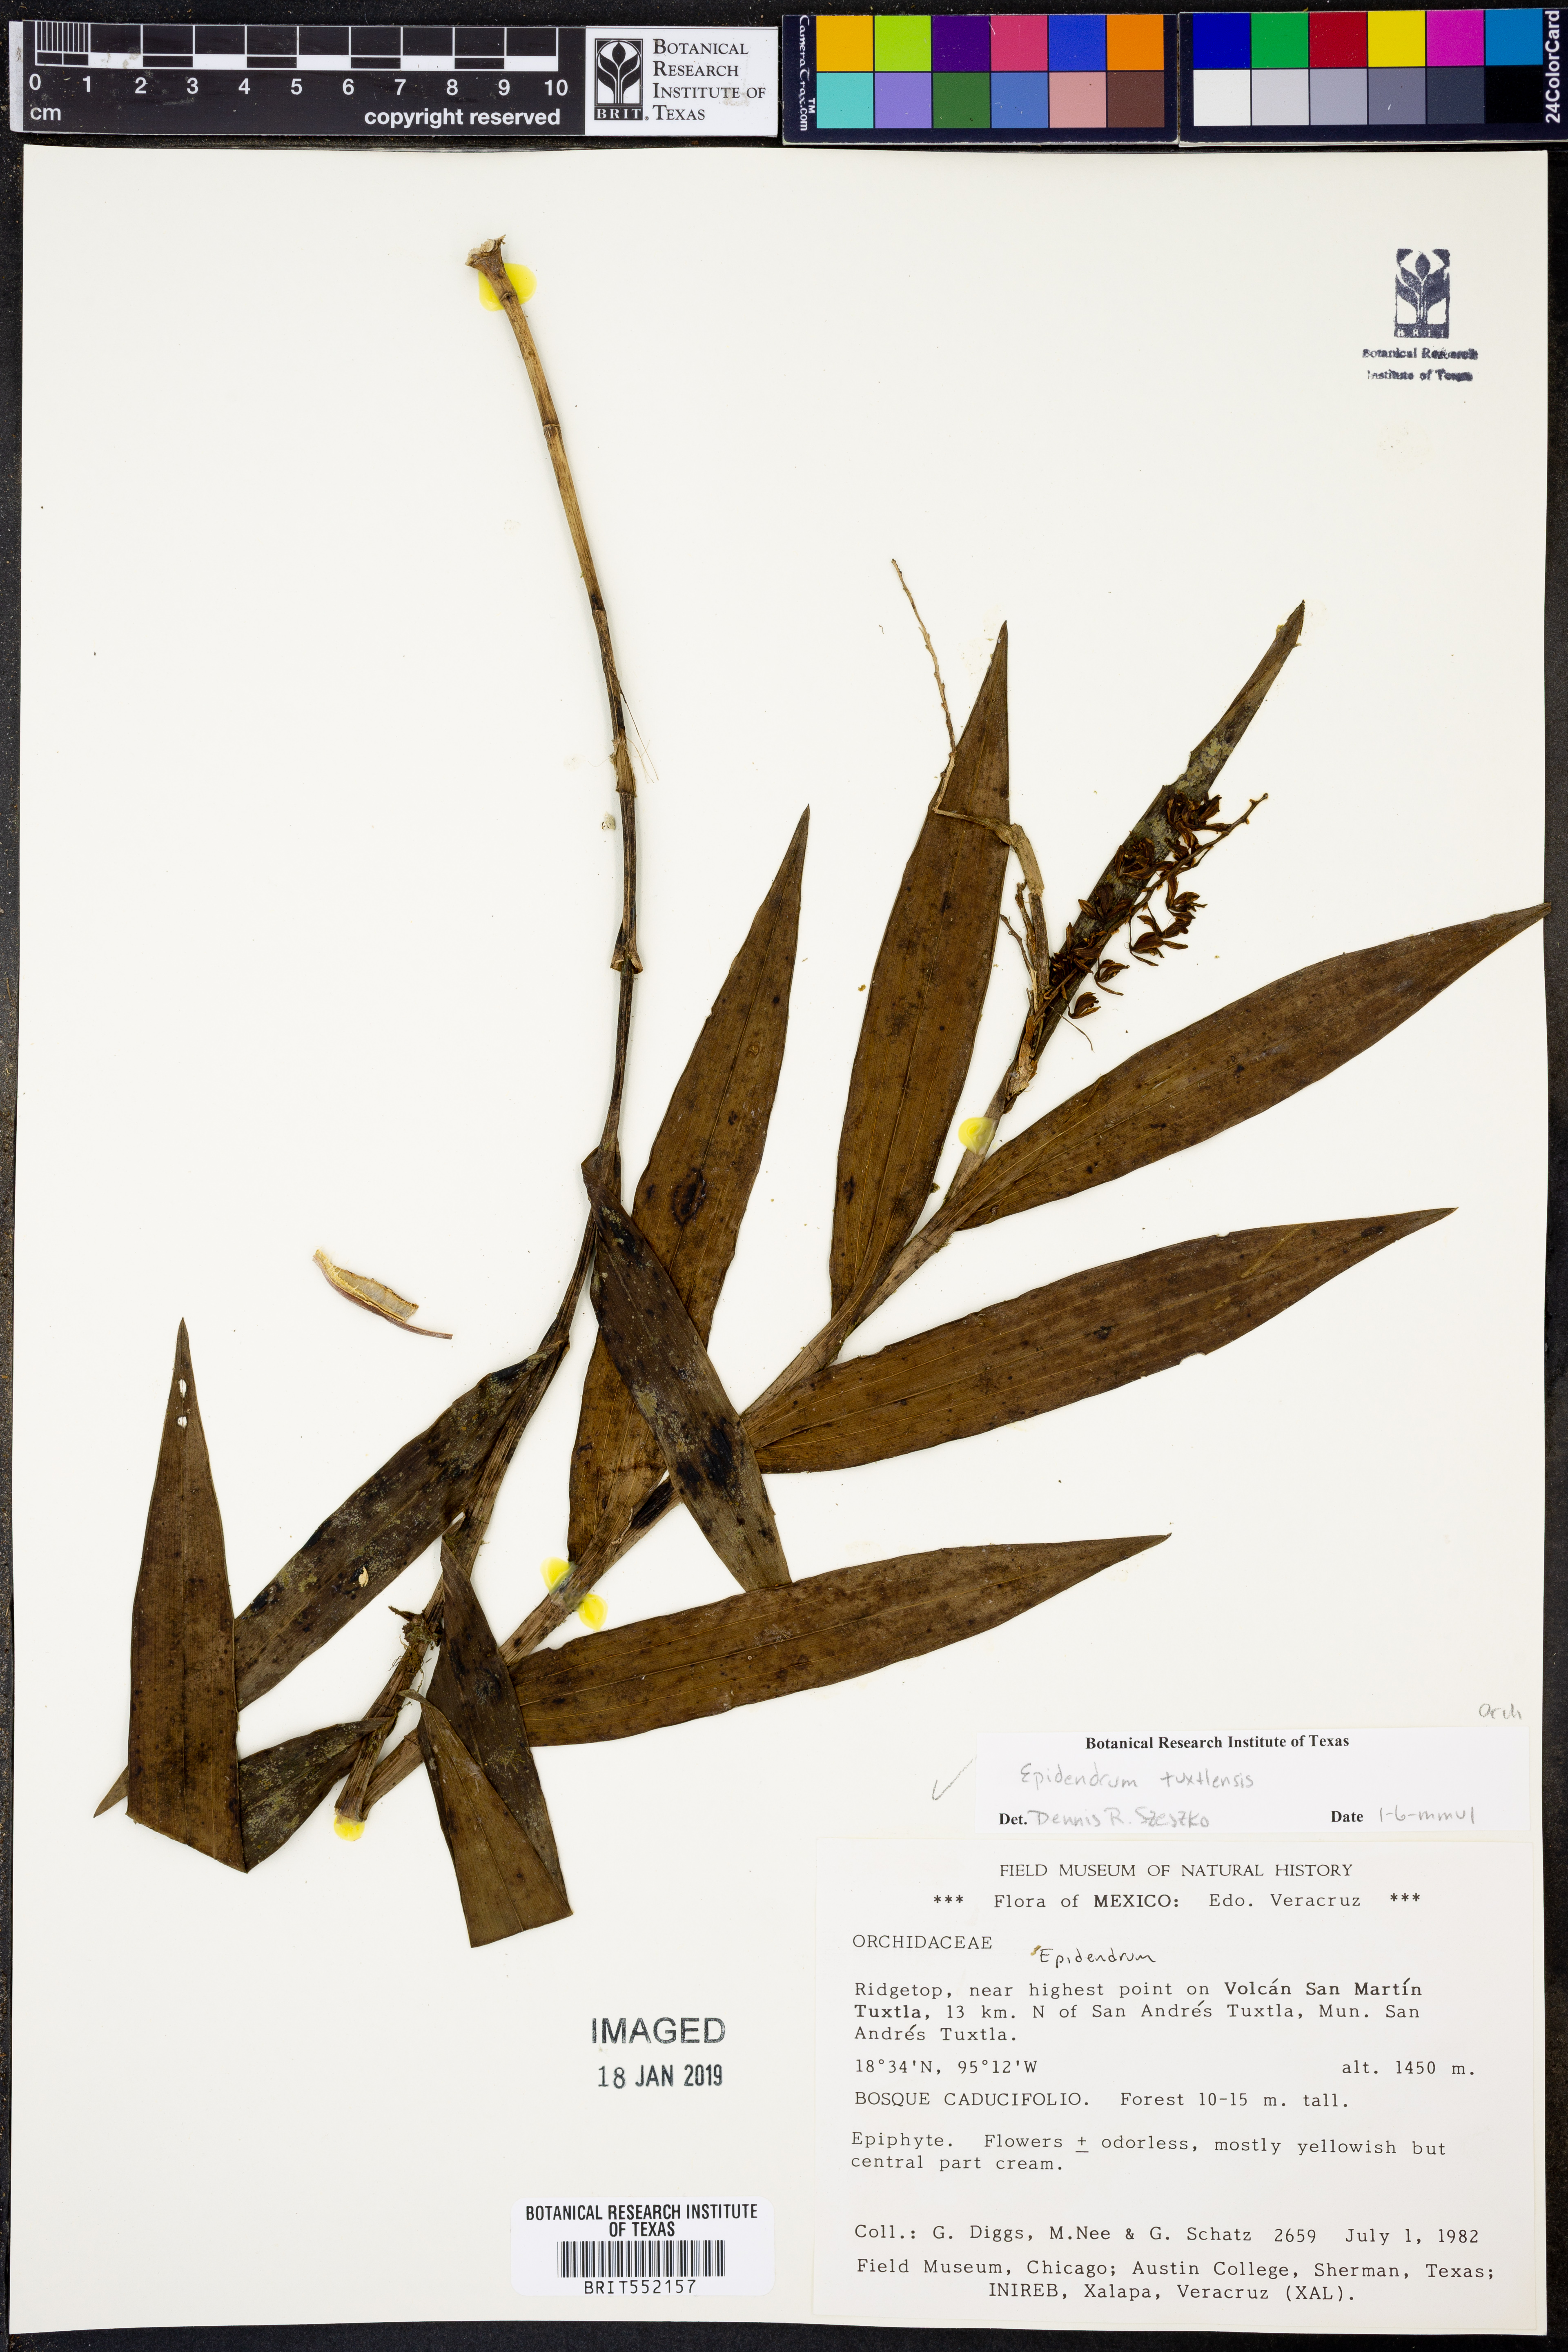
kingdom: Plantae
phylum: Tracheophyta
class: Liliopsida
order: Asparagales
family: Orchidaceae
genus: Epidendrum
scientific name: Epidendrum tuxtlense
